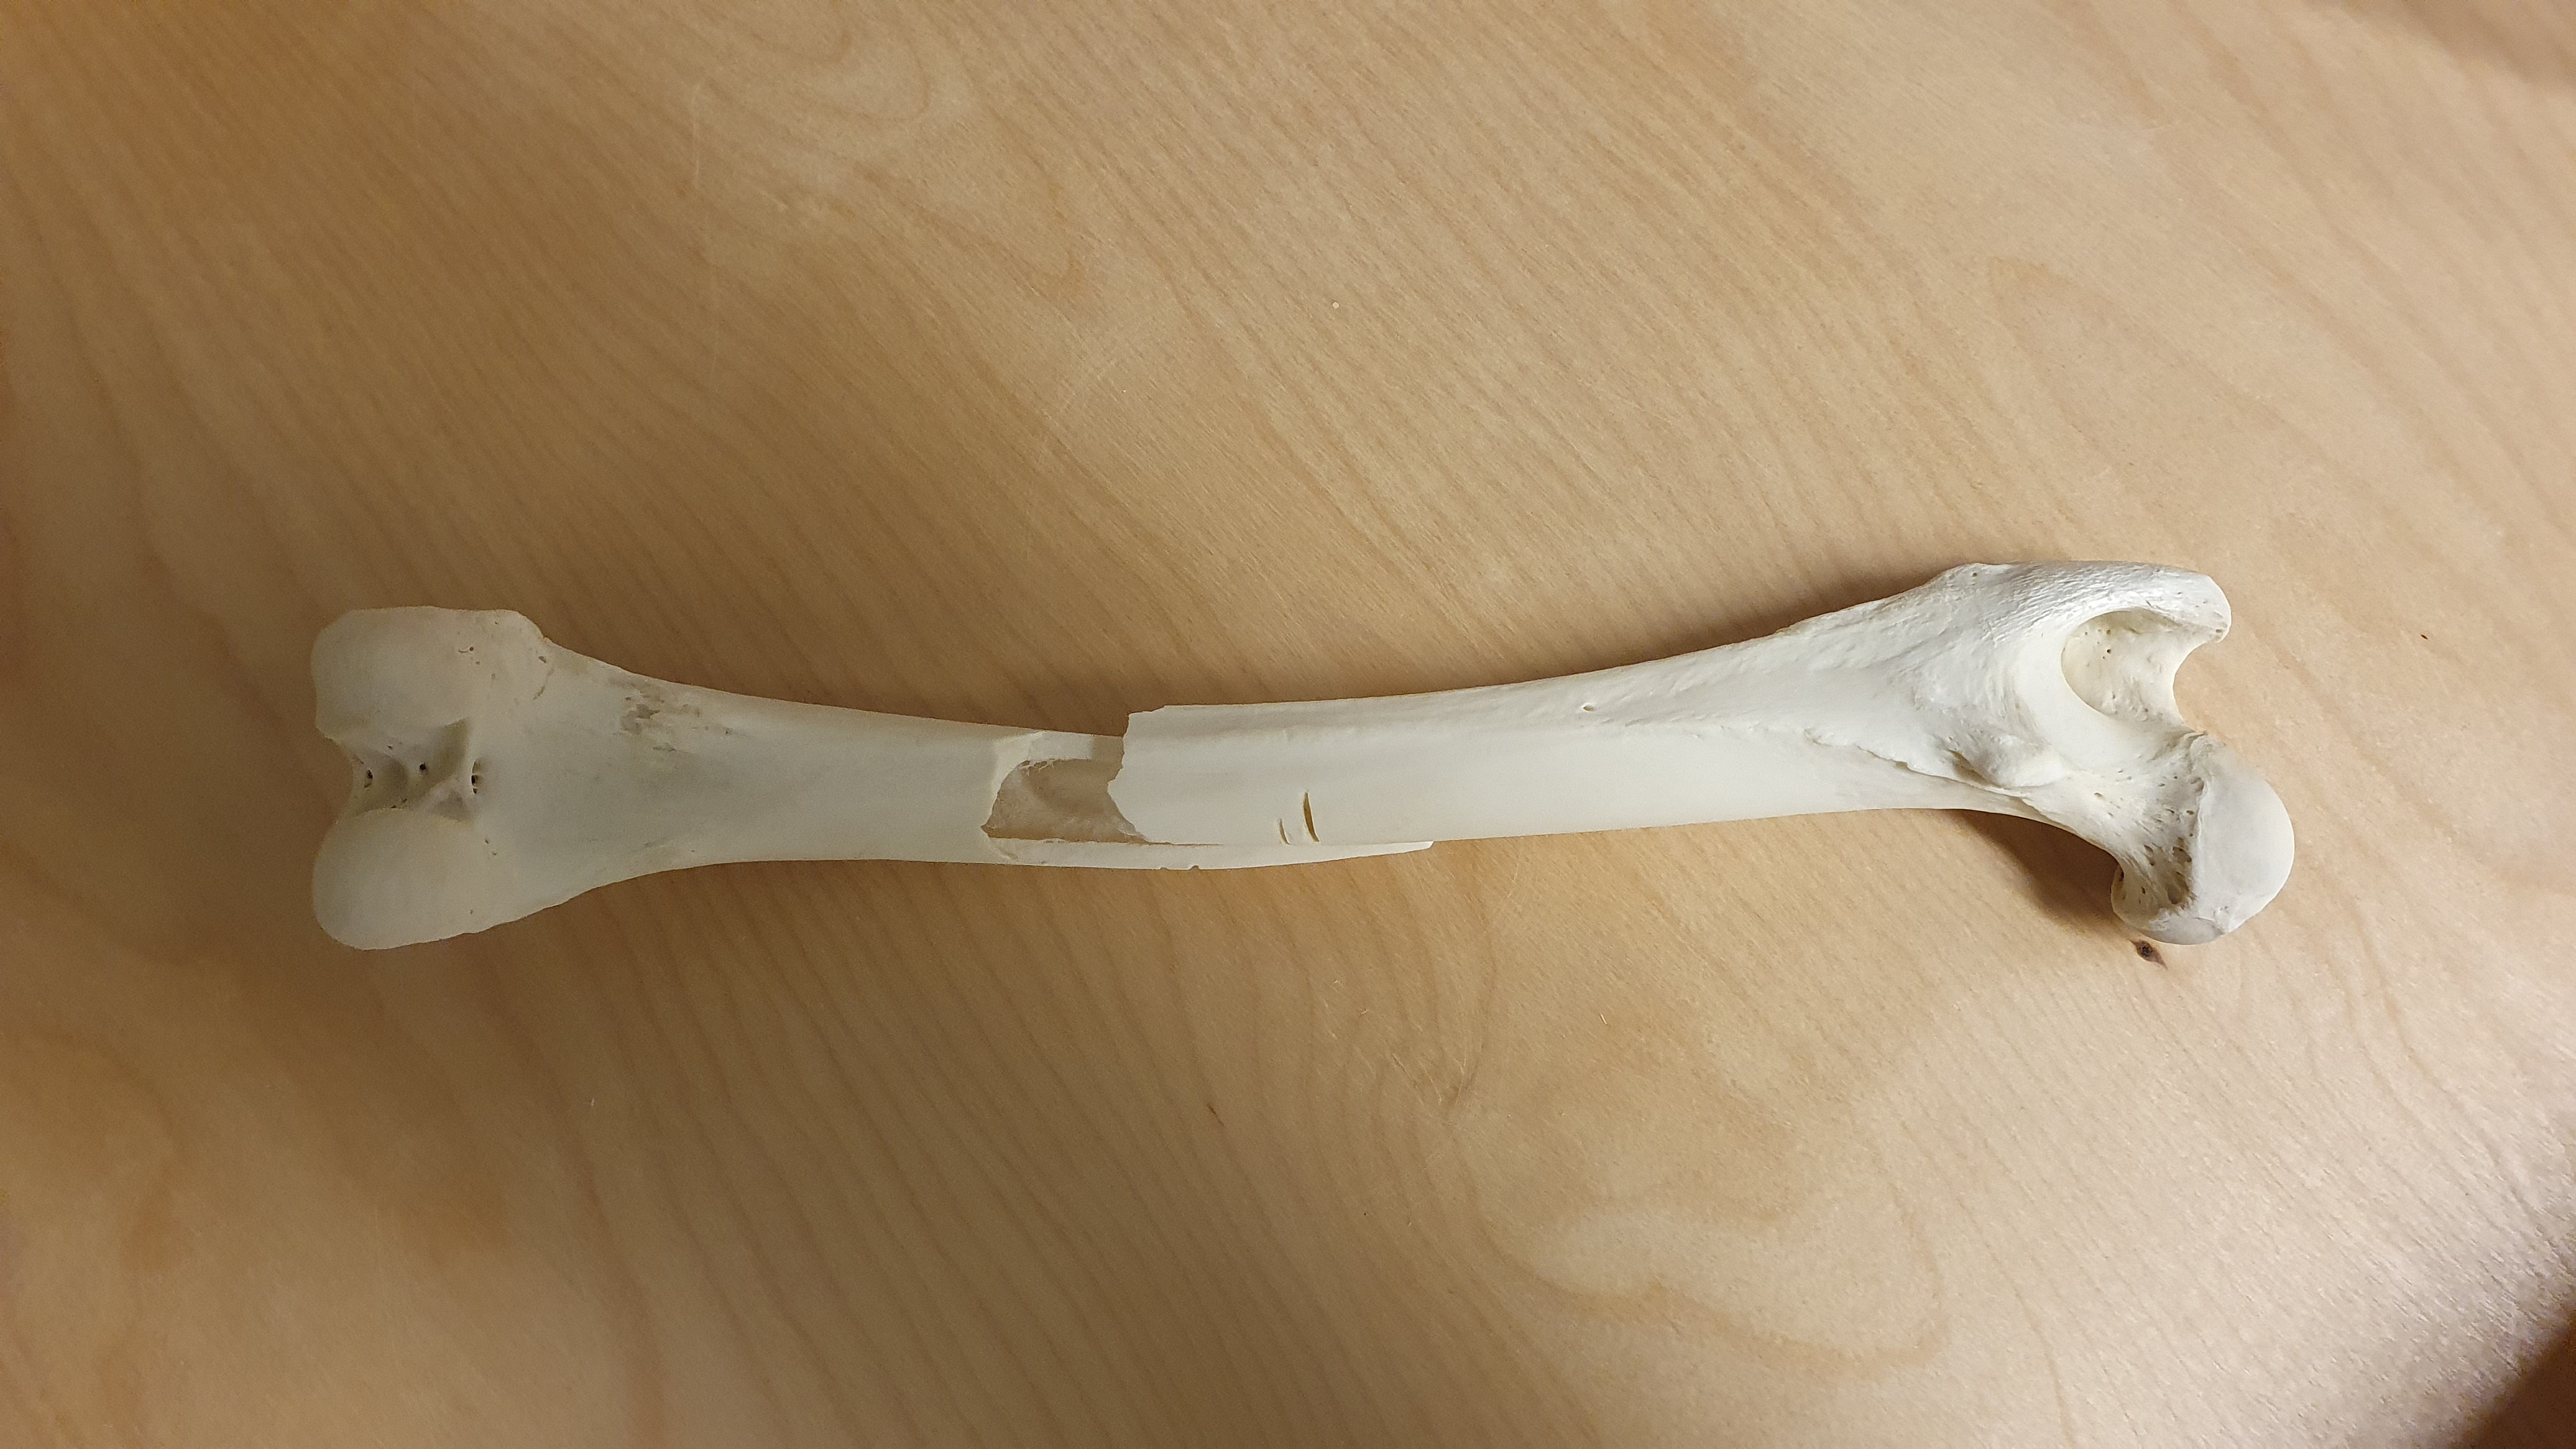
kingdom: Animalia
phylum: Chordata
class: Mammalia
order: Carnivora
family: Canidae
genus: Canis
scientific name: Canis lupus
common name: Gray wolf
